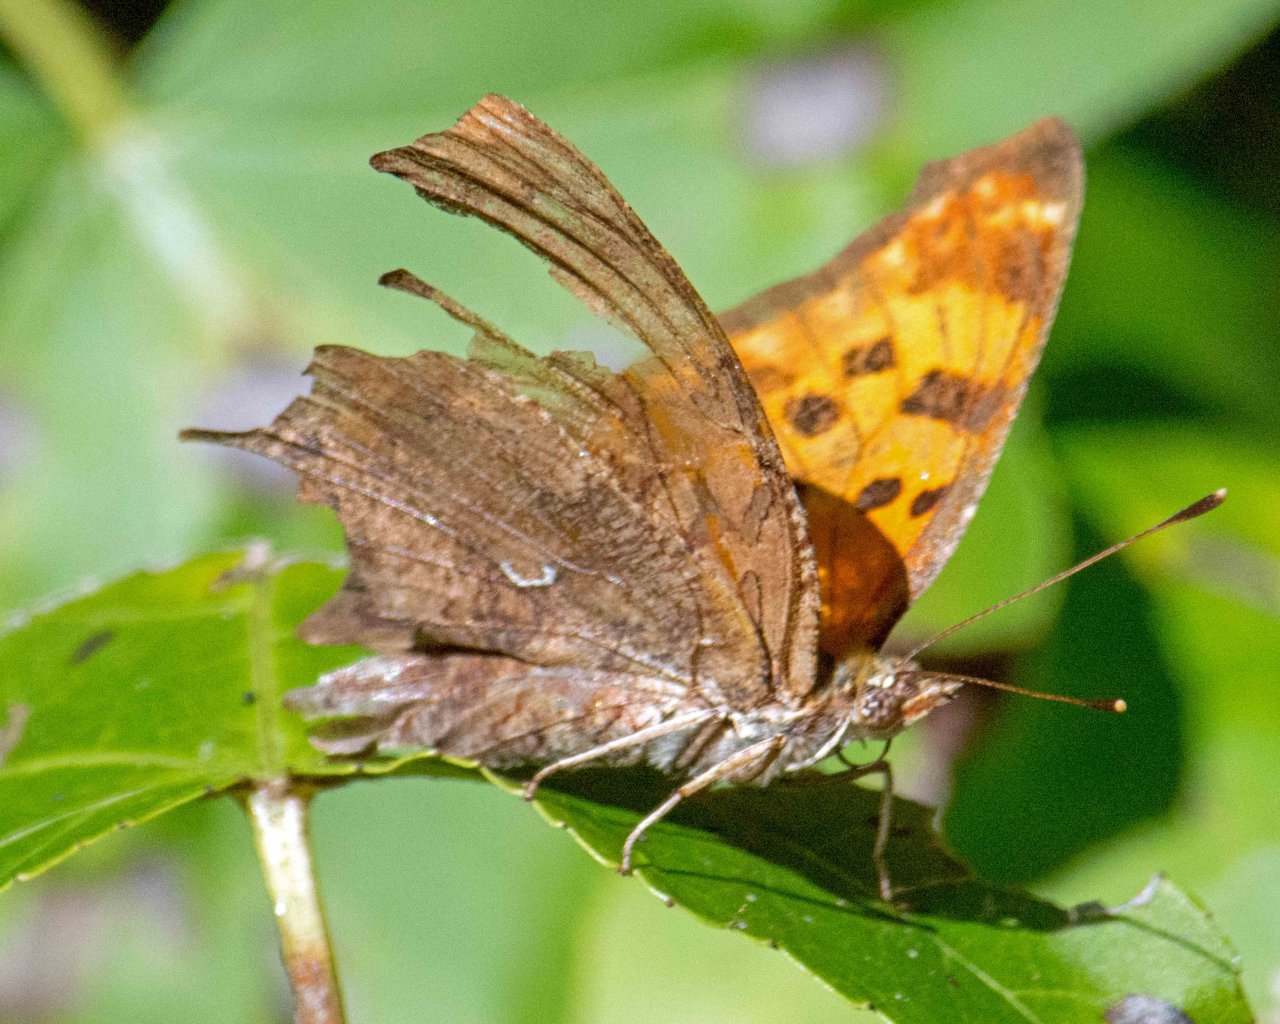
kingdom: Animalia
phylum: Arthropoda
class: Insecta
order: Lepidoptera
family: Nymphalidae
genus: Polygonia
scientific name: Polygonia comma
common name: Eastern Comma
